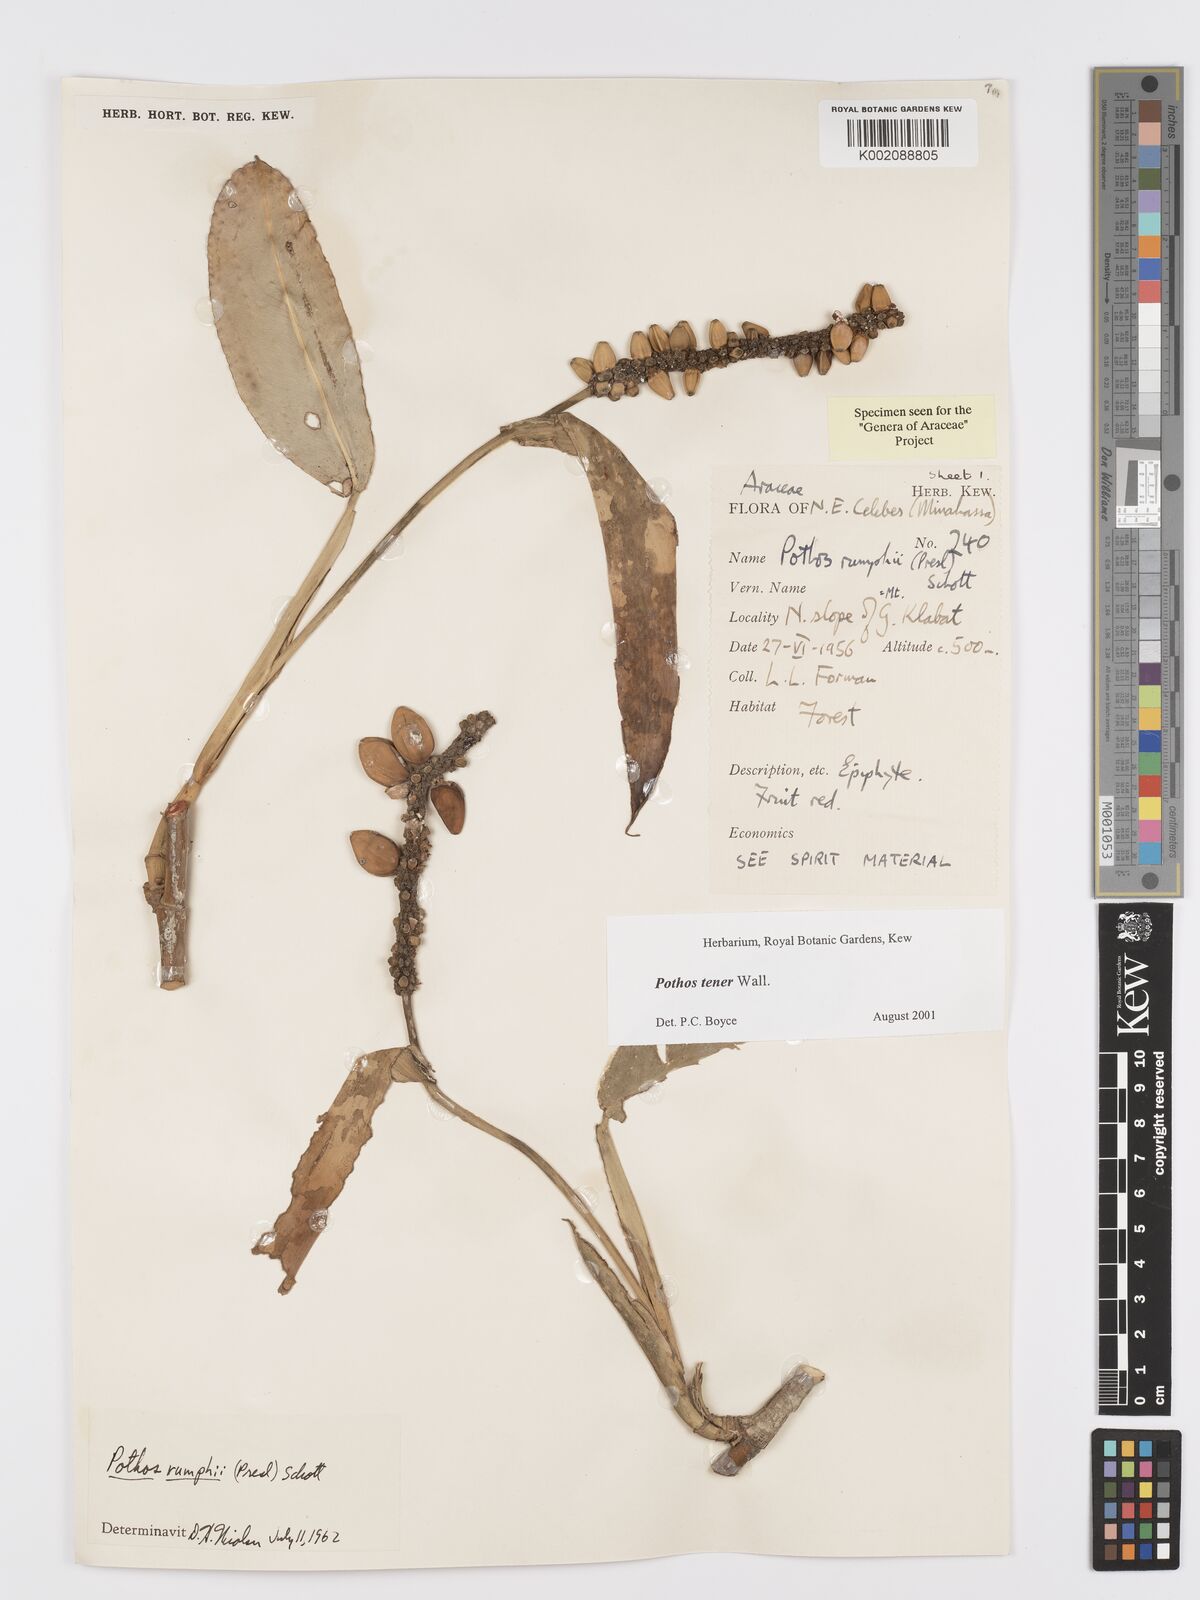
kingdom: Plantae
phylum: Tracheophyta
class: Liliopsida
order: Alismatales
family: Araceae
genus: Pothos
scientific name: Pothos tener
